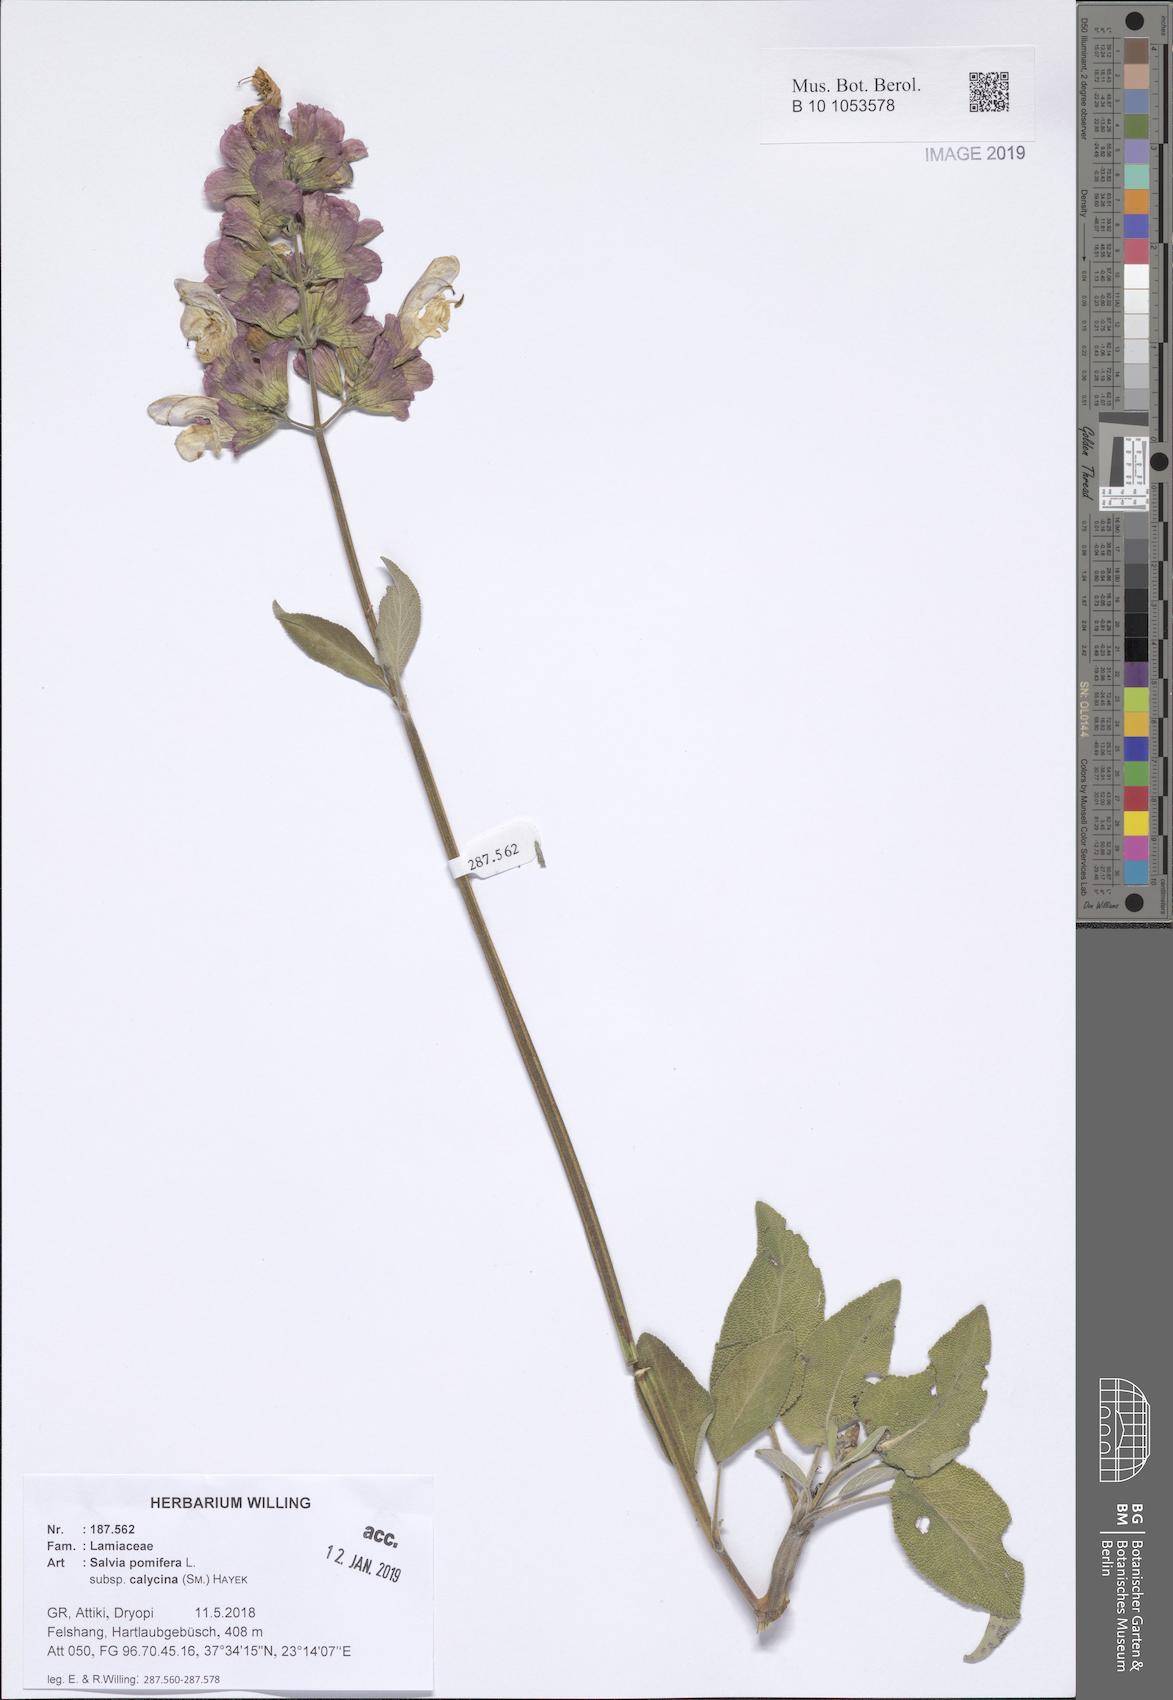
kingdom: Plantae
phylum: Tracheophyta
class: Magnoliopsida
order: Lamiales
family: Lamiaceae
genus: Salvia
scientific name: Salvia pomifera
